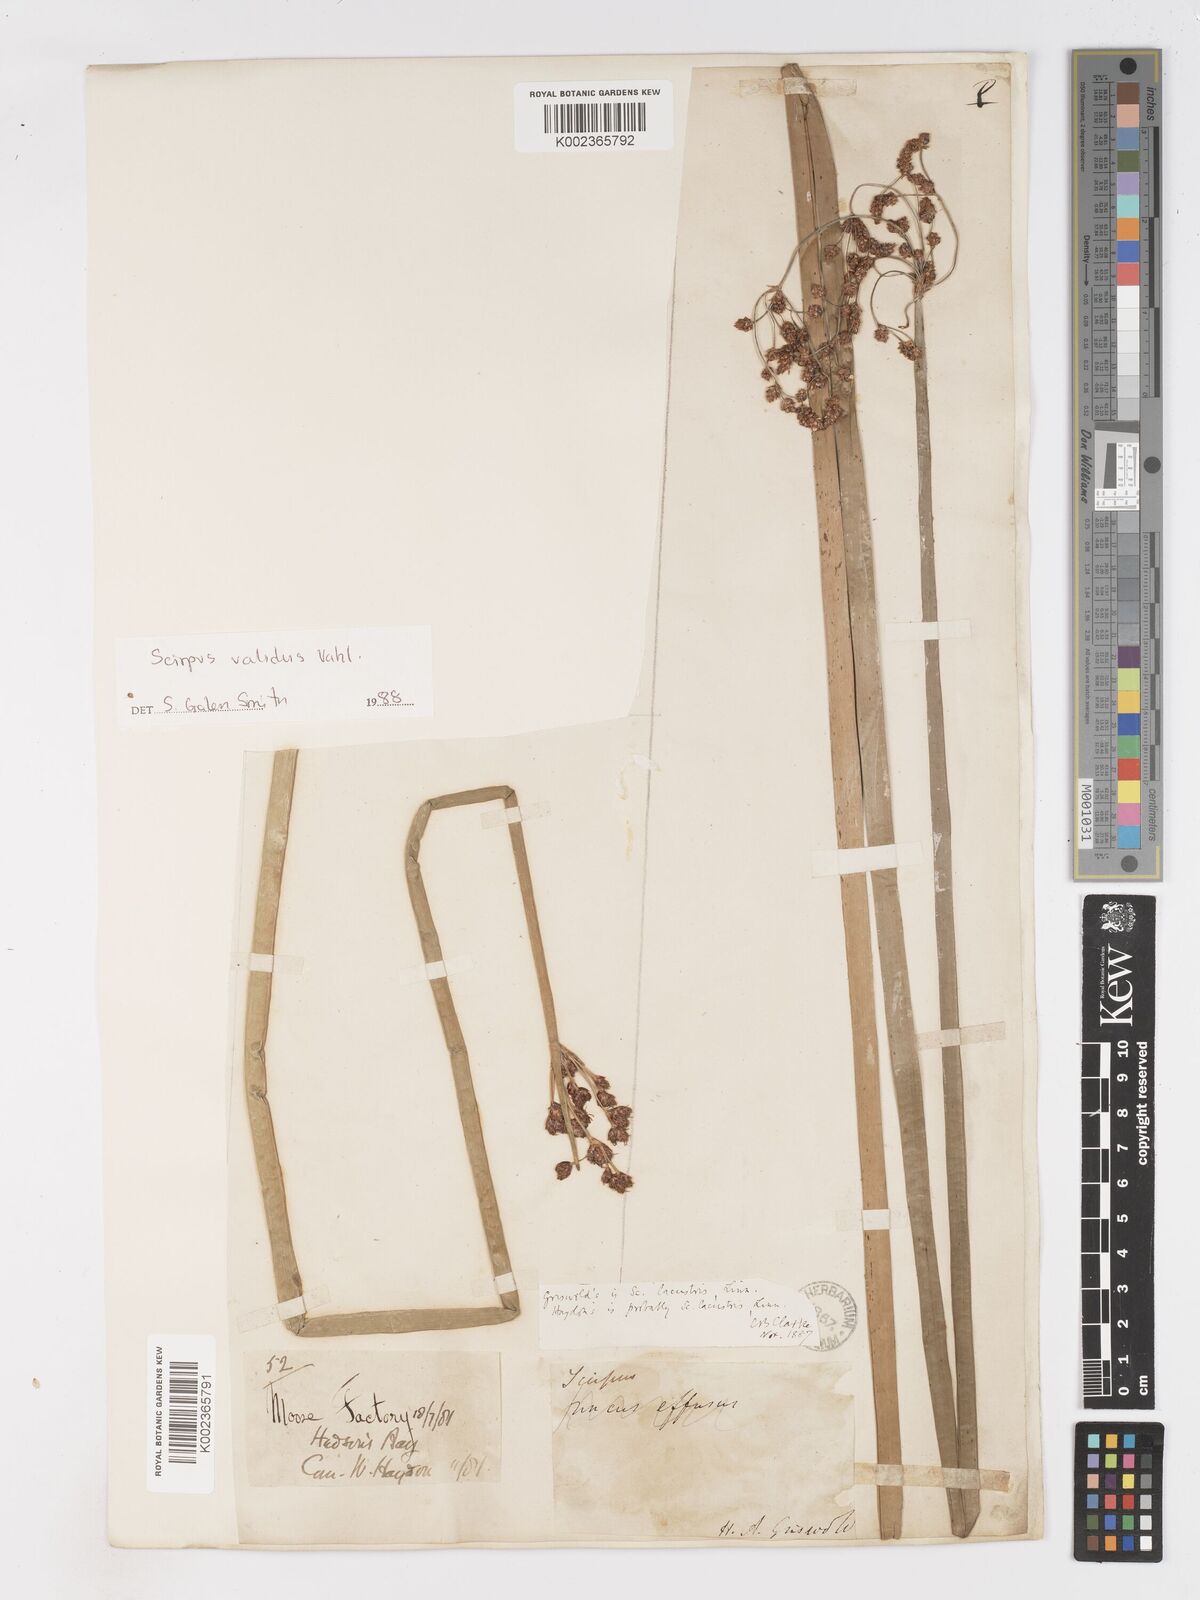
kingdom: Plantae
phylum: Tracheophyta
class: Liliopsida
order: Poales
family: Cyperaceae
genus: Schoenoplectus
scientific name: Schoenoplectus lacustris
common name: Common club-rush
